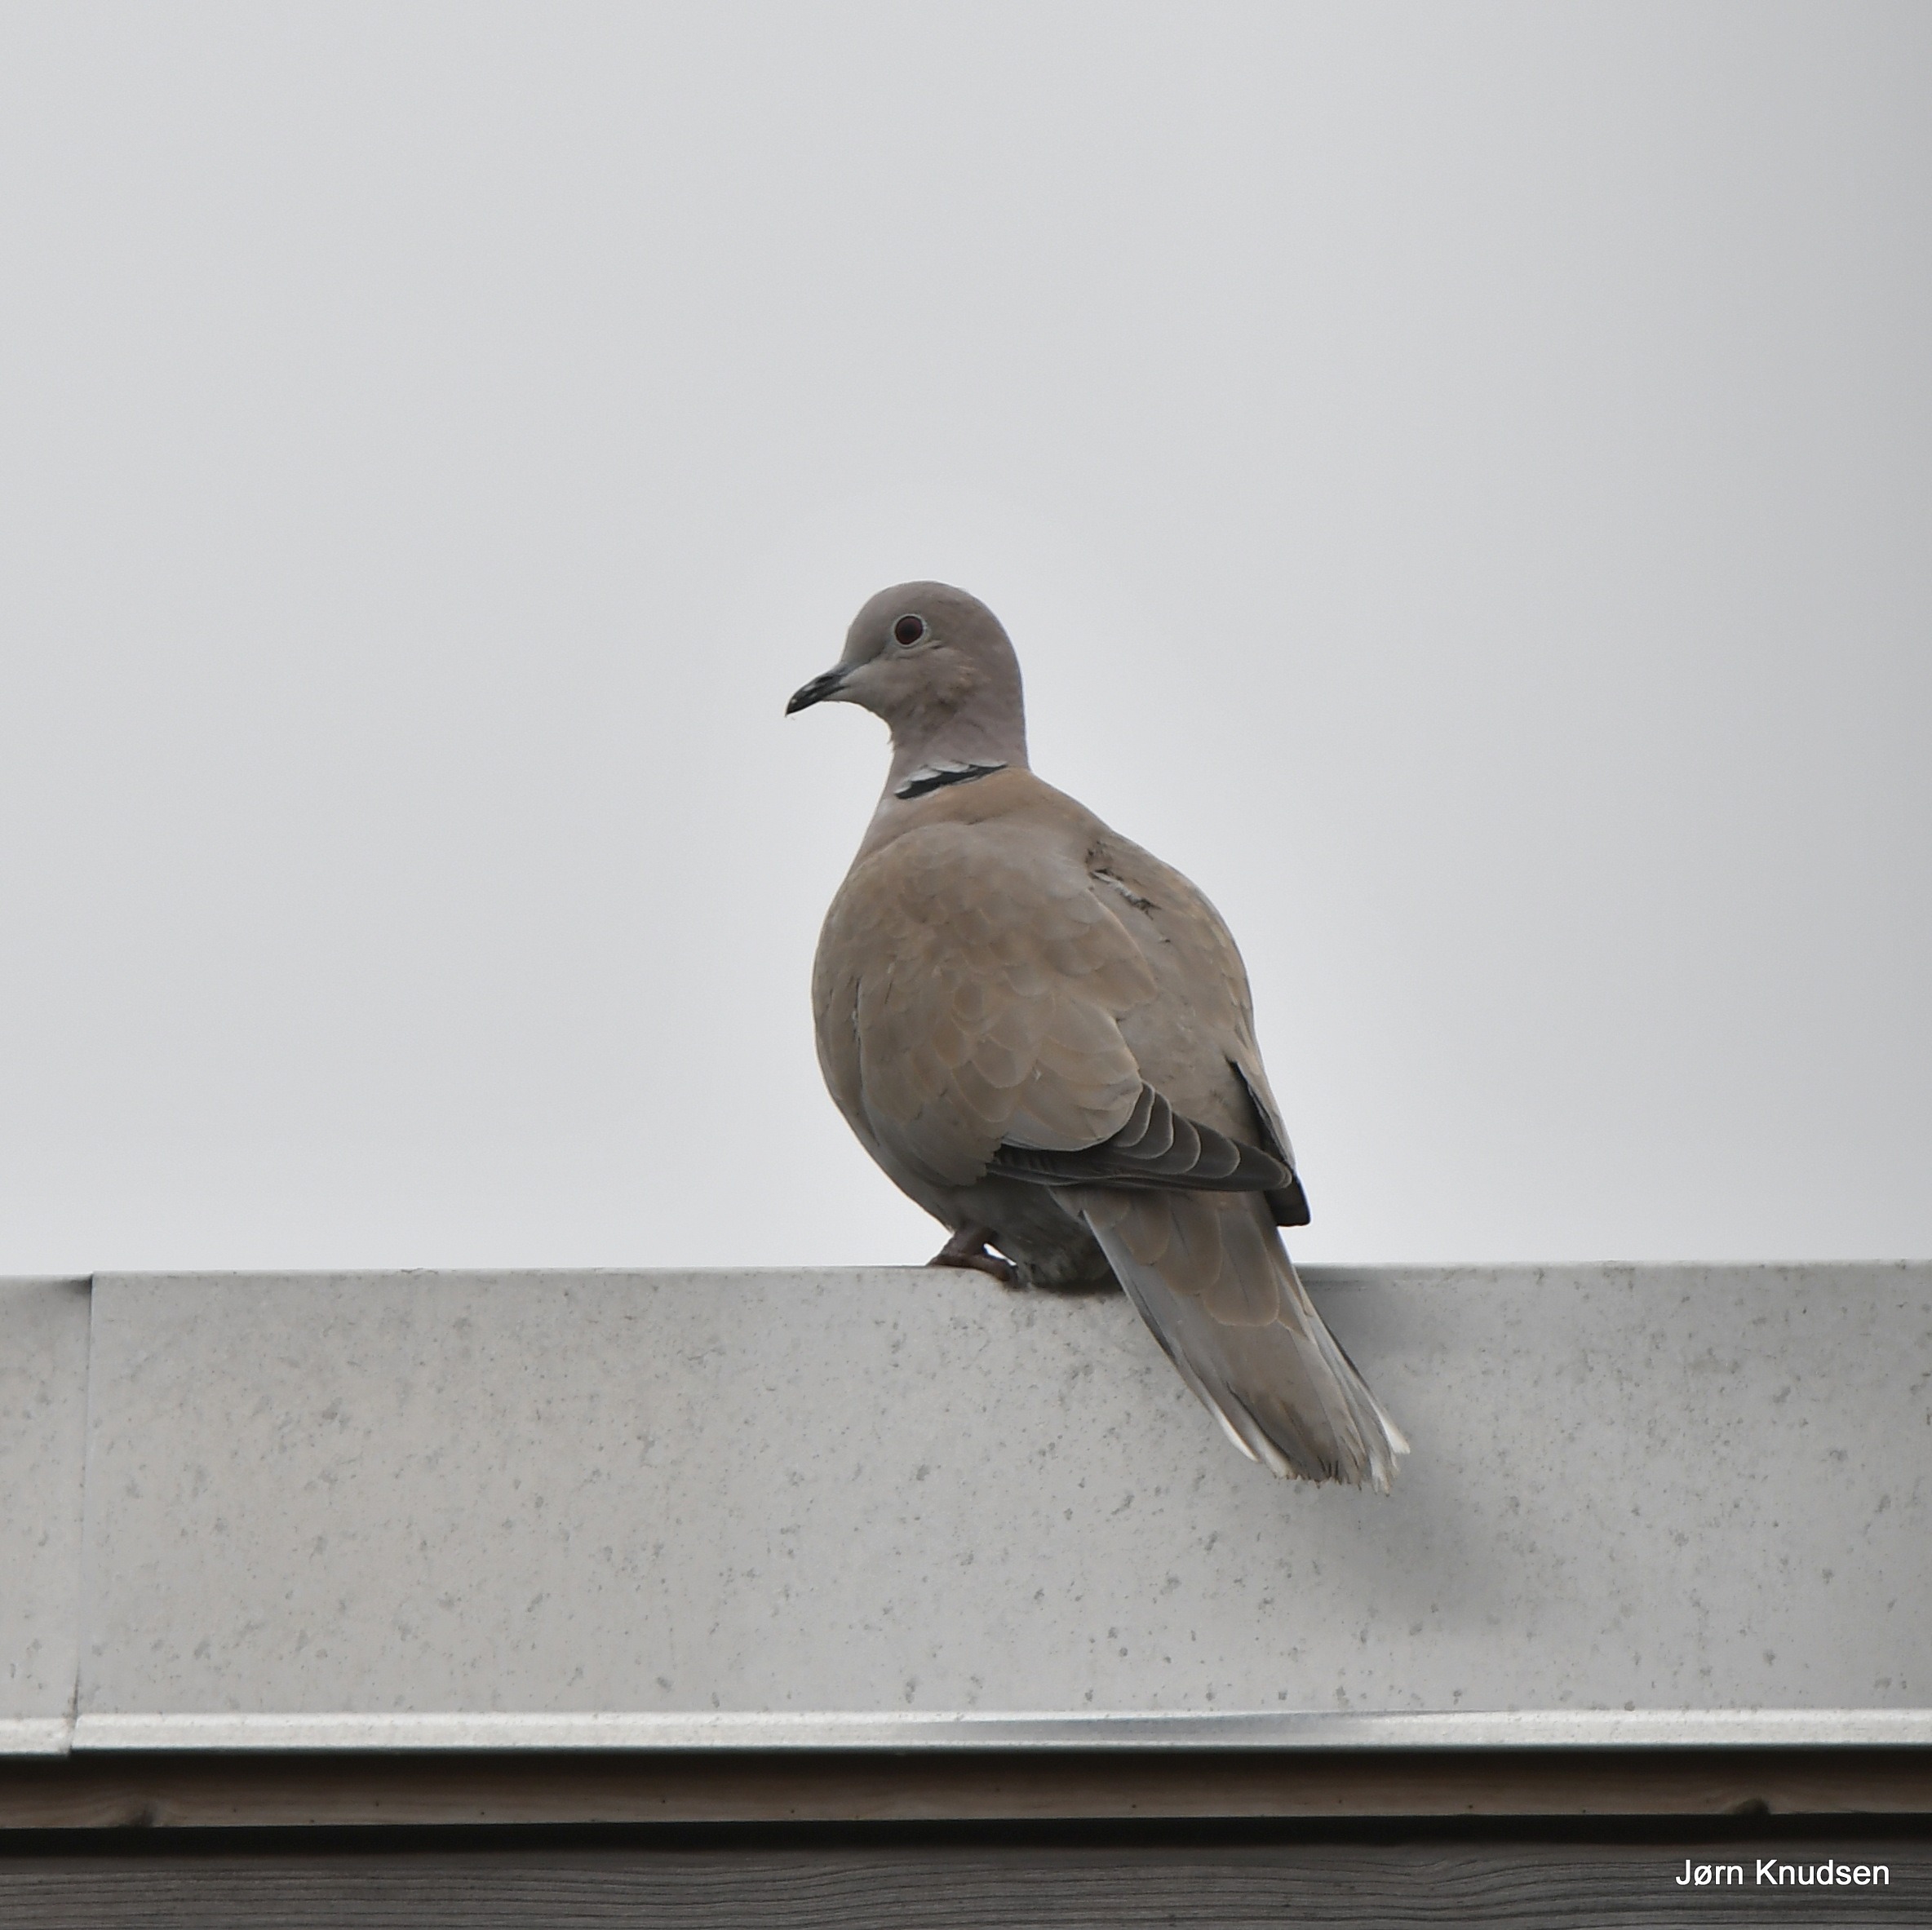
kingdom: Animalia
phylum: Chordata
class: Aves
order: Columbiformes
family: Columbidae
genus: Streptopelia
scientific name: Streptopelia decaocto
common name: Tyrkerdue
